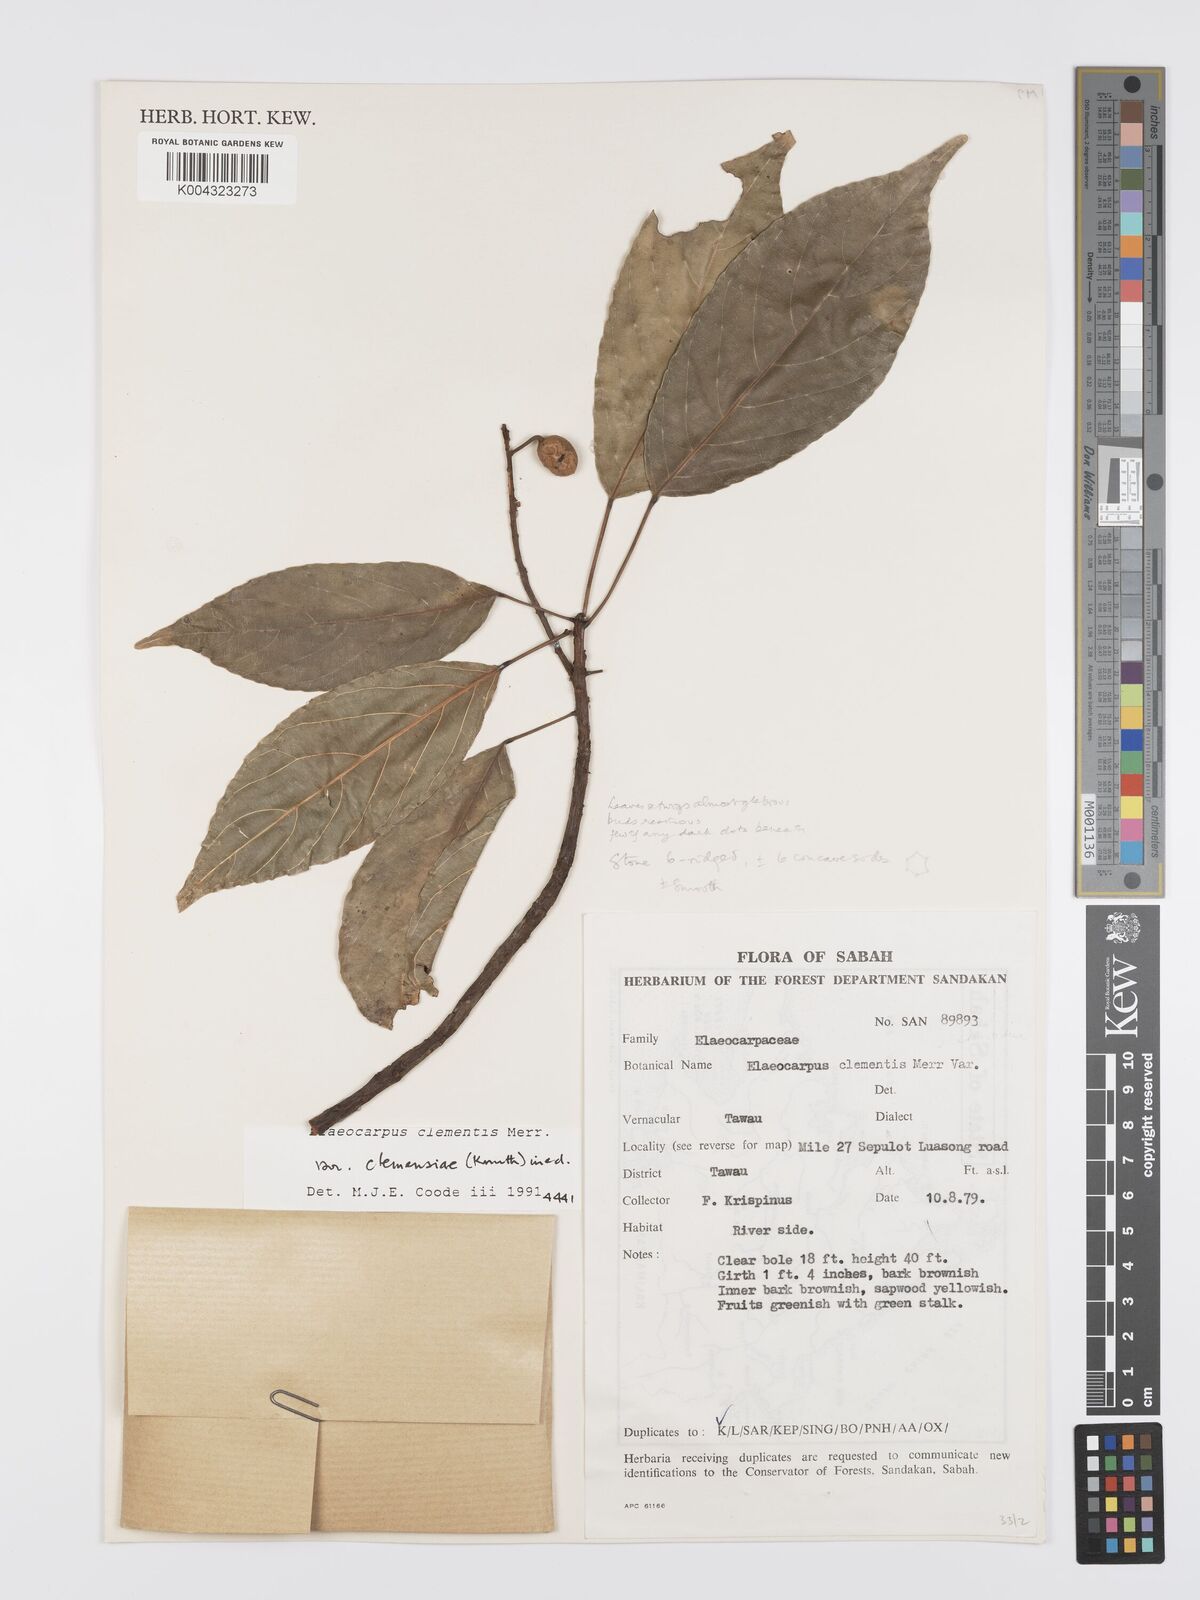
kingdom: Plantae
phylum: Tracheophyta
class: Magnoliopsida
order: Oxalidales
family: Elaeocarpaceae
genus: Elaeocarpus
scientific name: Elaeocarpus clementis
